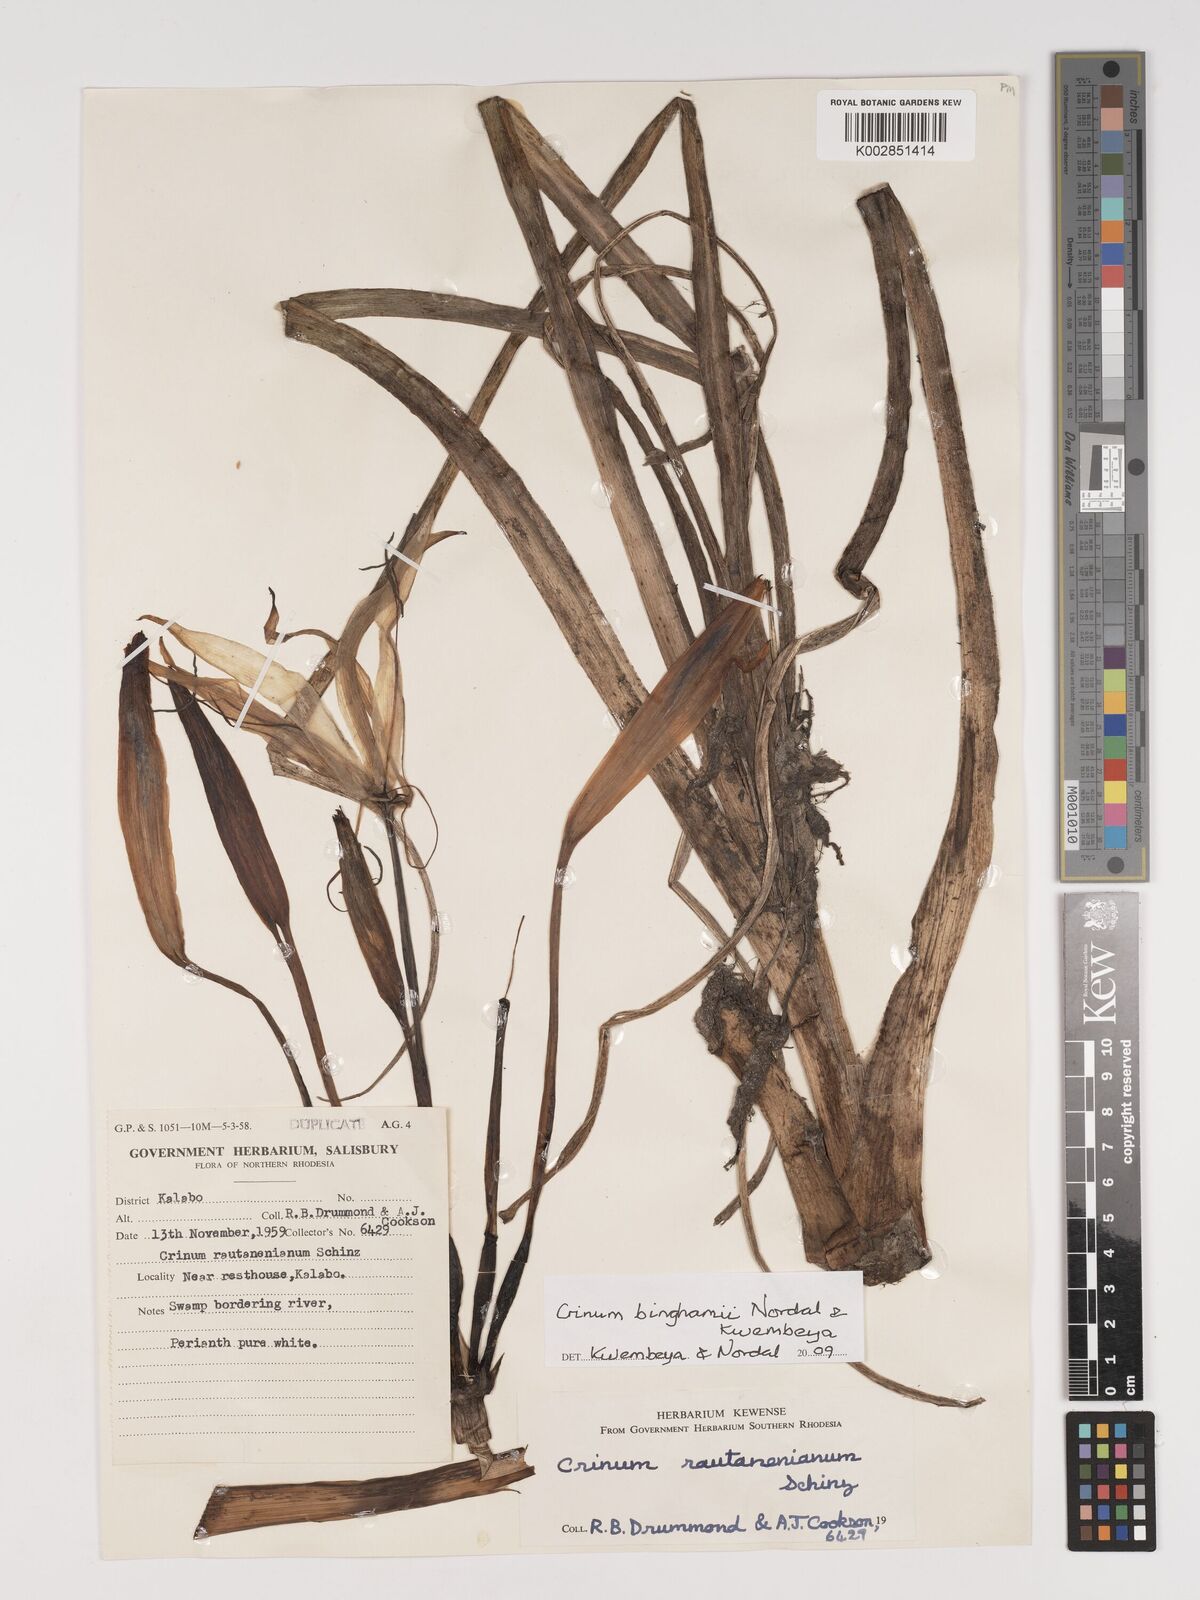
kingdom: Plantae
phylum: Tracheophyta
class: Liliopsida
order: Asparagales
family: Amaryllidaceae
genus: Crinum
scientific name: Crinum binghamii
